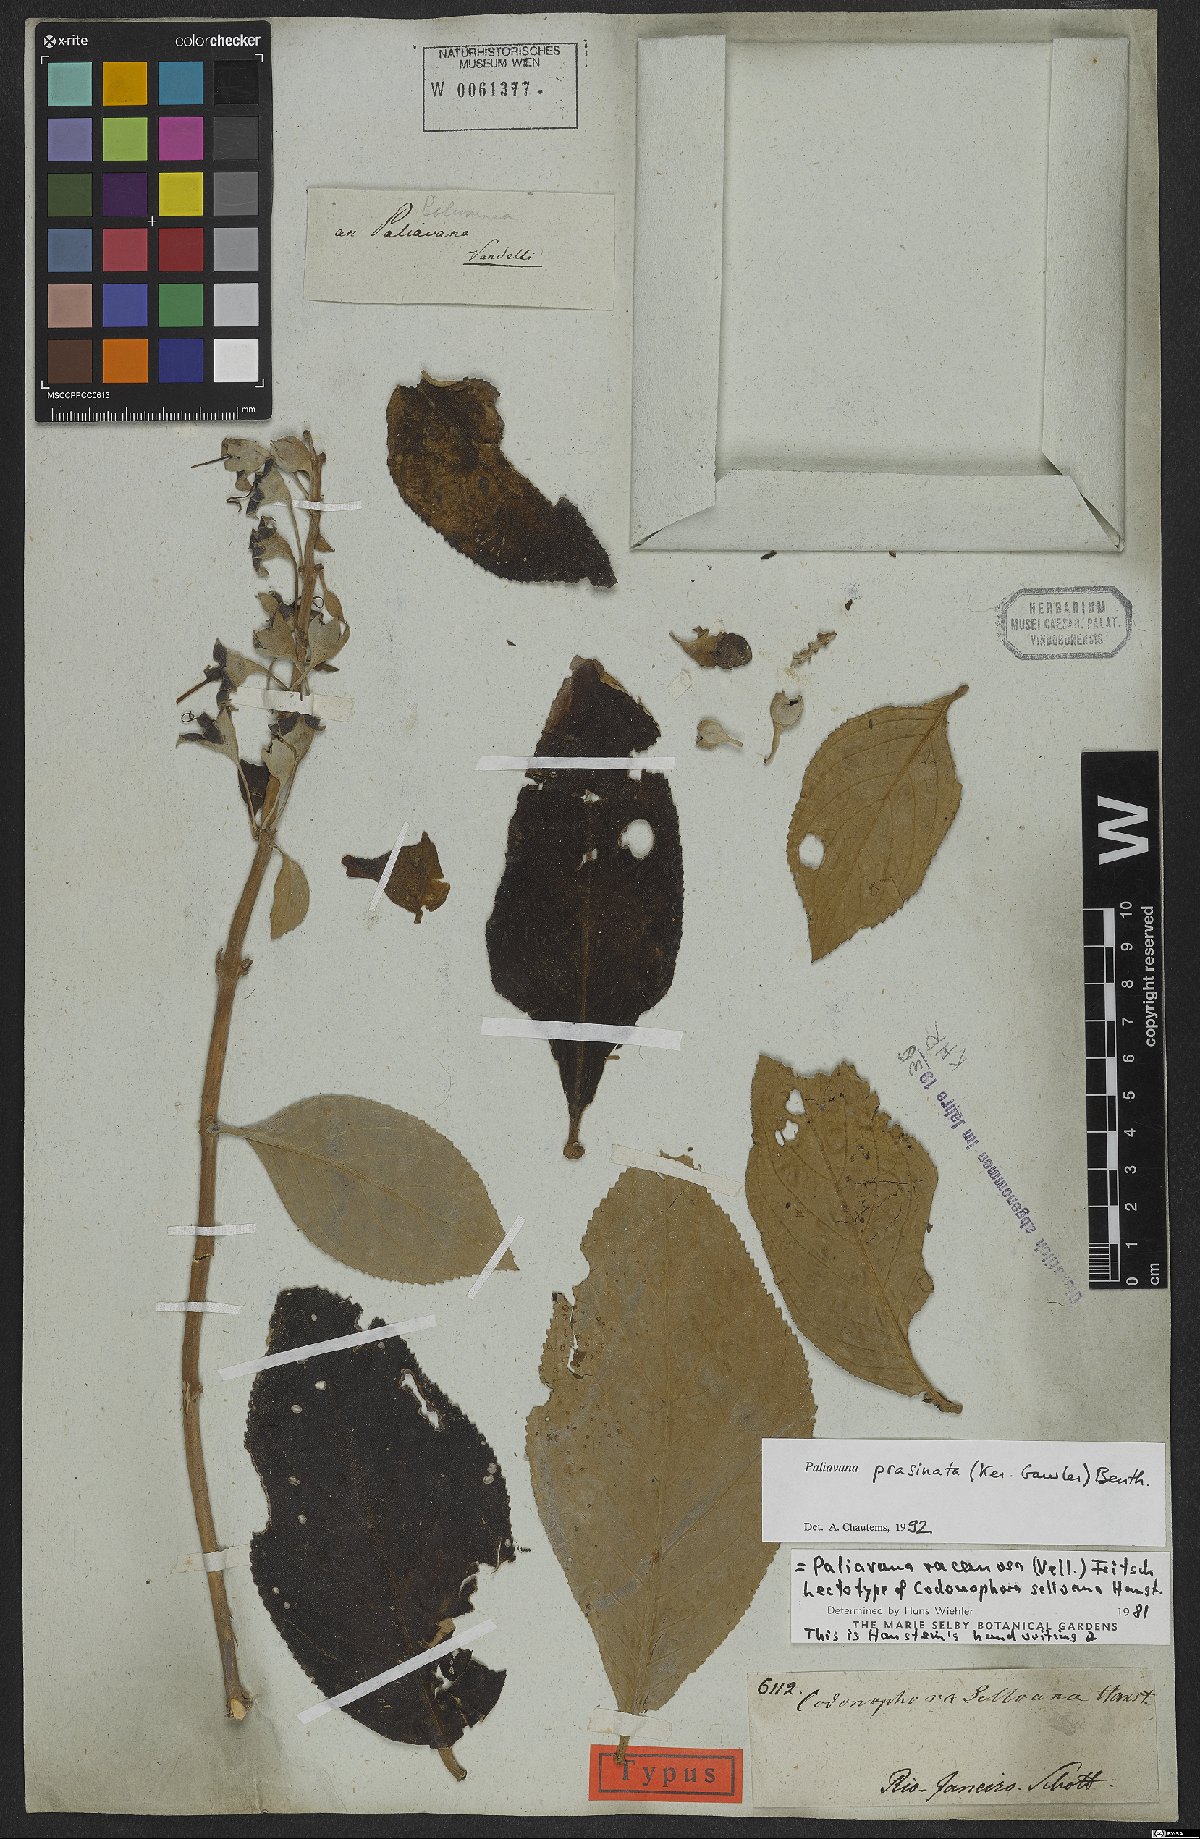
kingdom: Plantae
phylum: Tracheophyta
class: Magnoliopsida
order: Lamiales
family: Gesneriaceae
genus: Paliavana
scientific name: Paliavana prasinata
